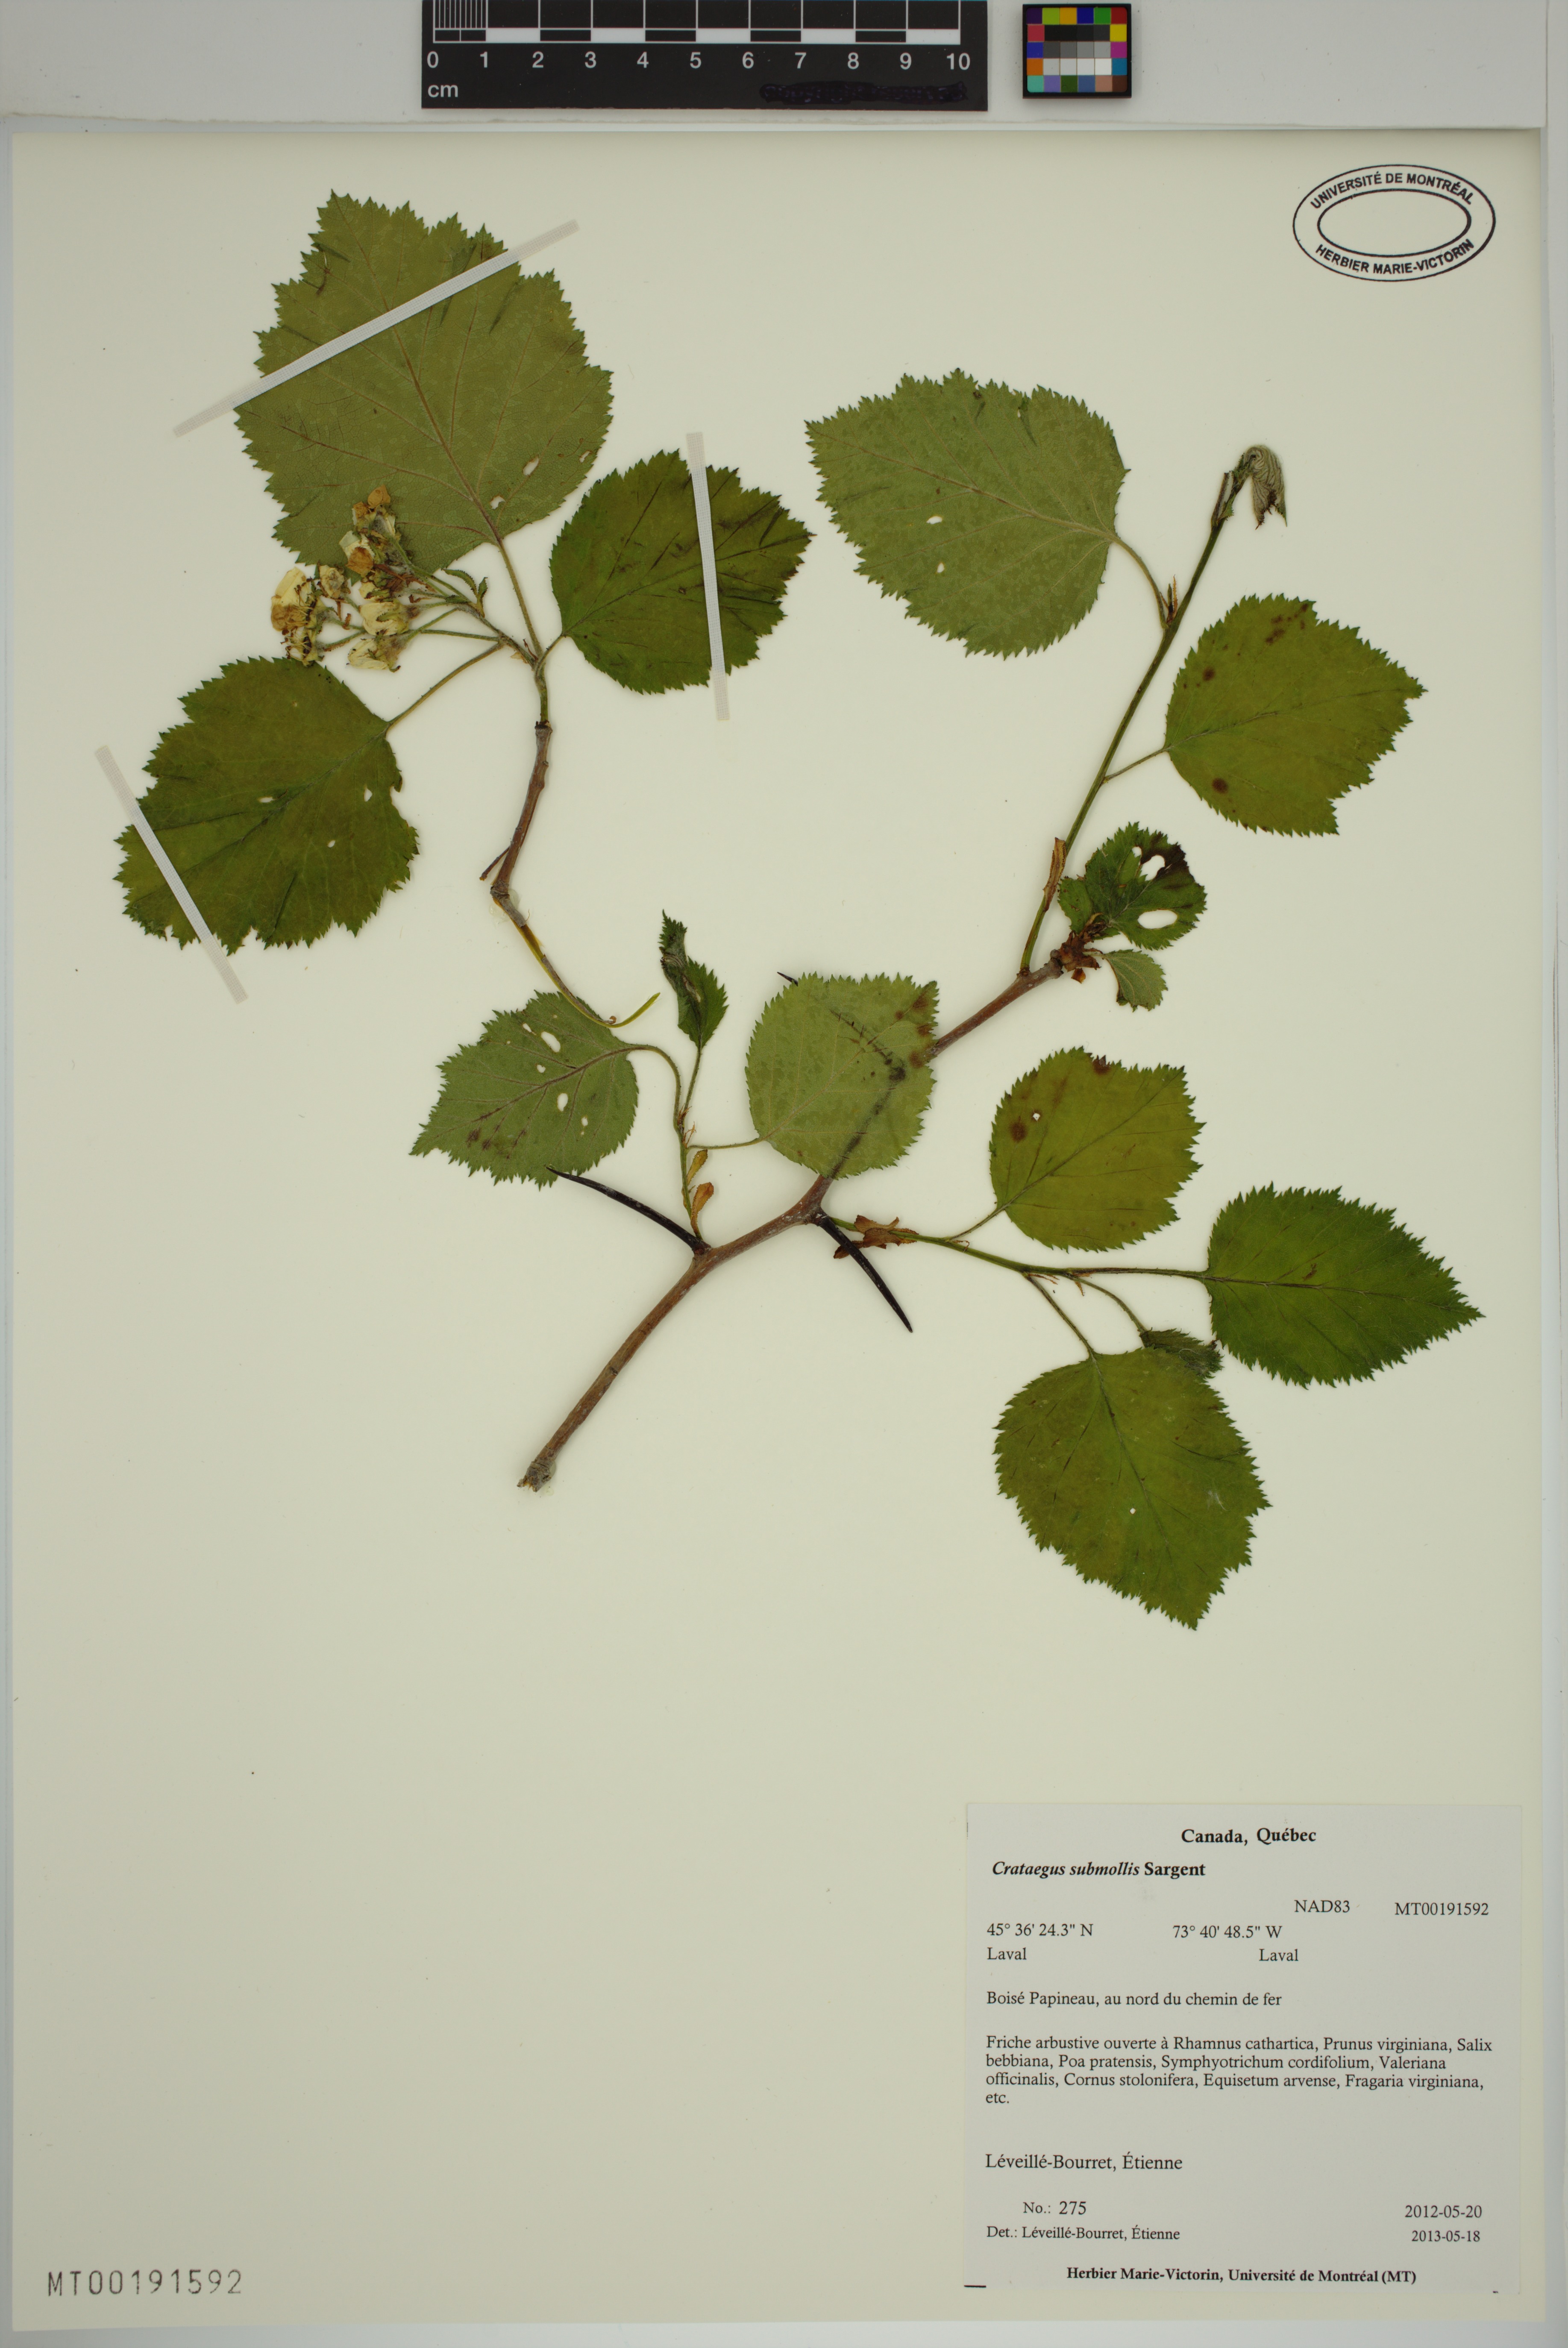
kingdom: Plantae
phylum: Tracheophyta
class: Magnoliopsida
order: Rosales
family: Rosaceae
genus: Crataegus
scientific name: Crataegus submollis
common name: Hairy cockspurthorn
